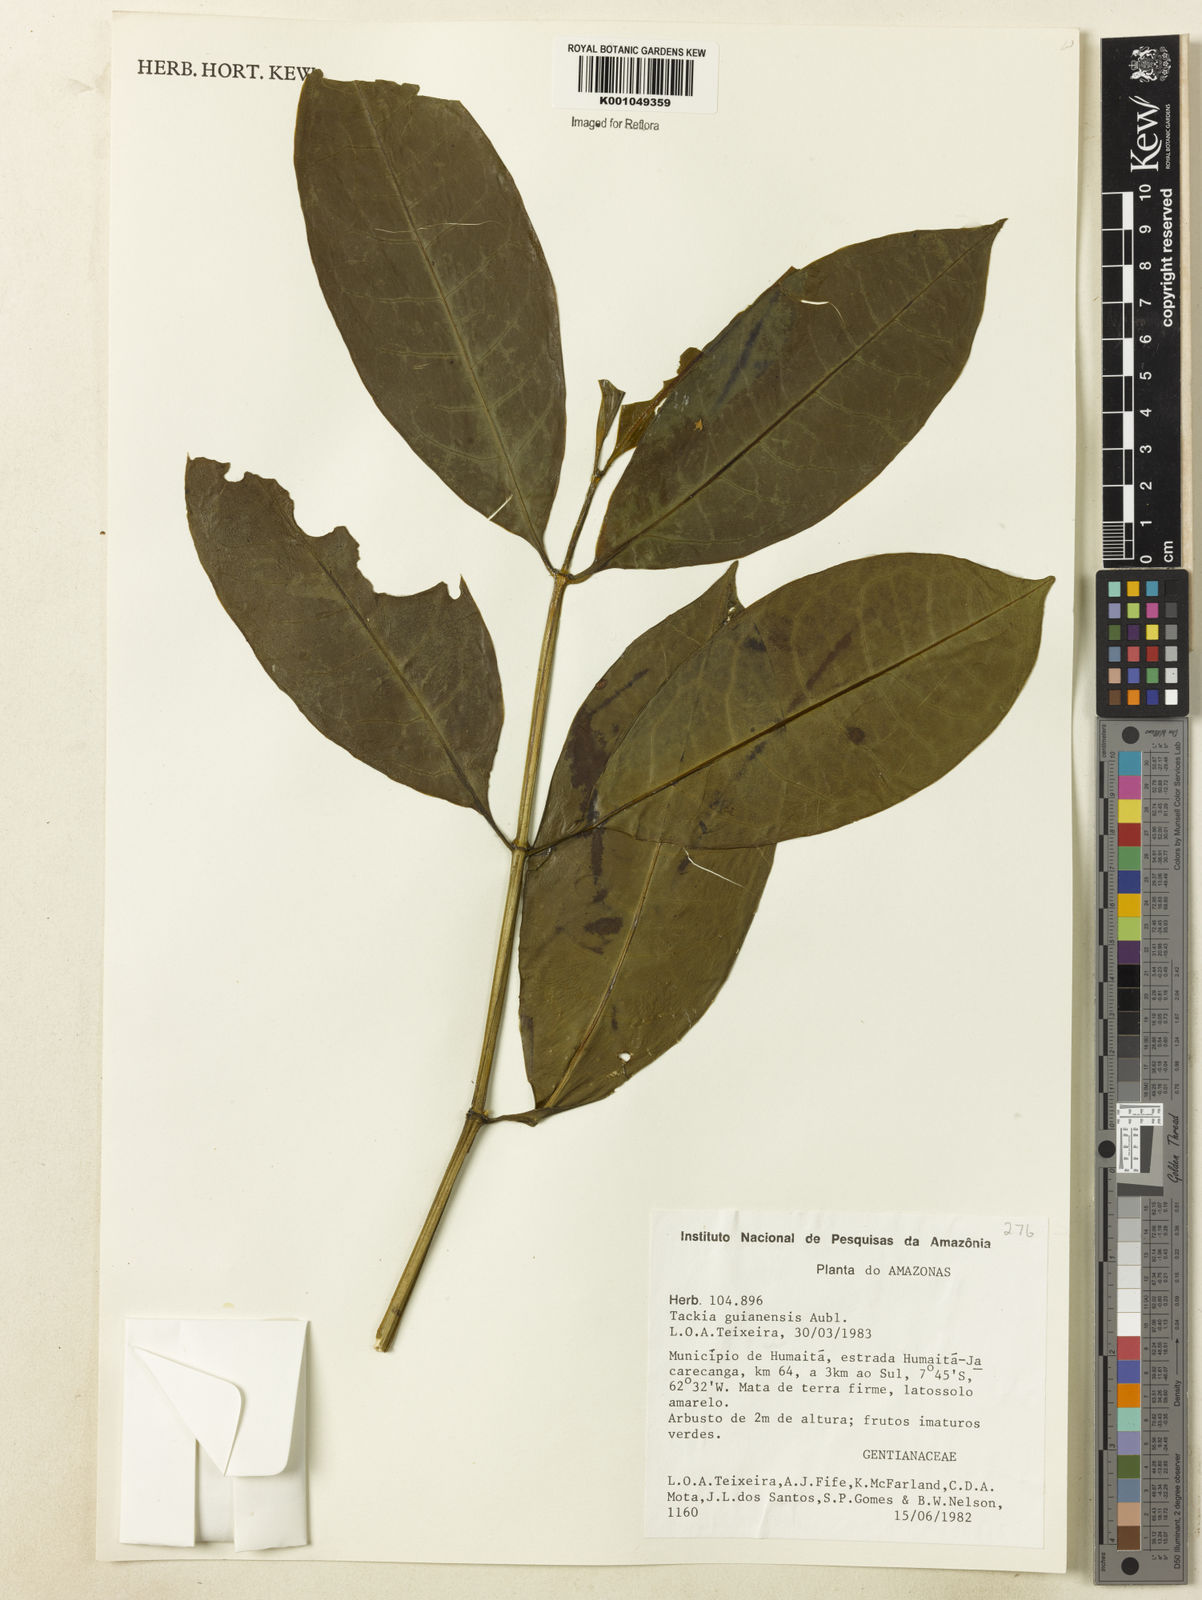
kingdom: Plantae
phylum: Tracheophyta
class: Magnoliopsida
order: Gentianales
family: Gentianaceae
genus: Tachia
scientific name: Tachia guianensis
